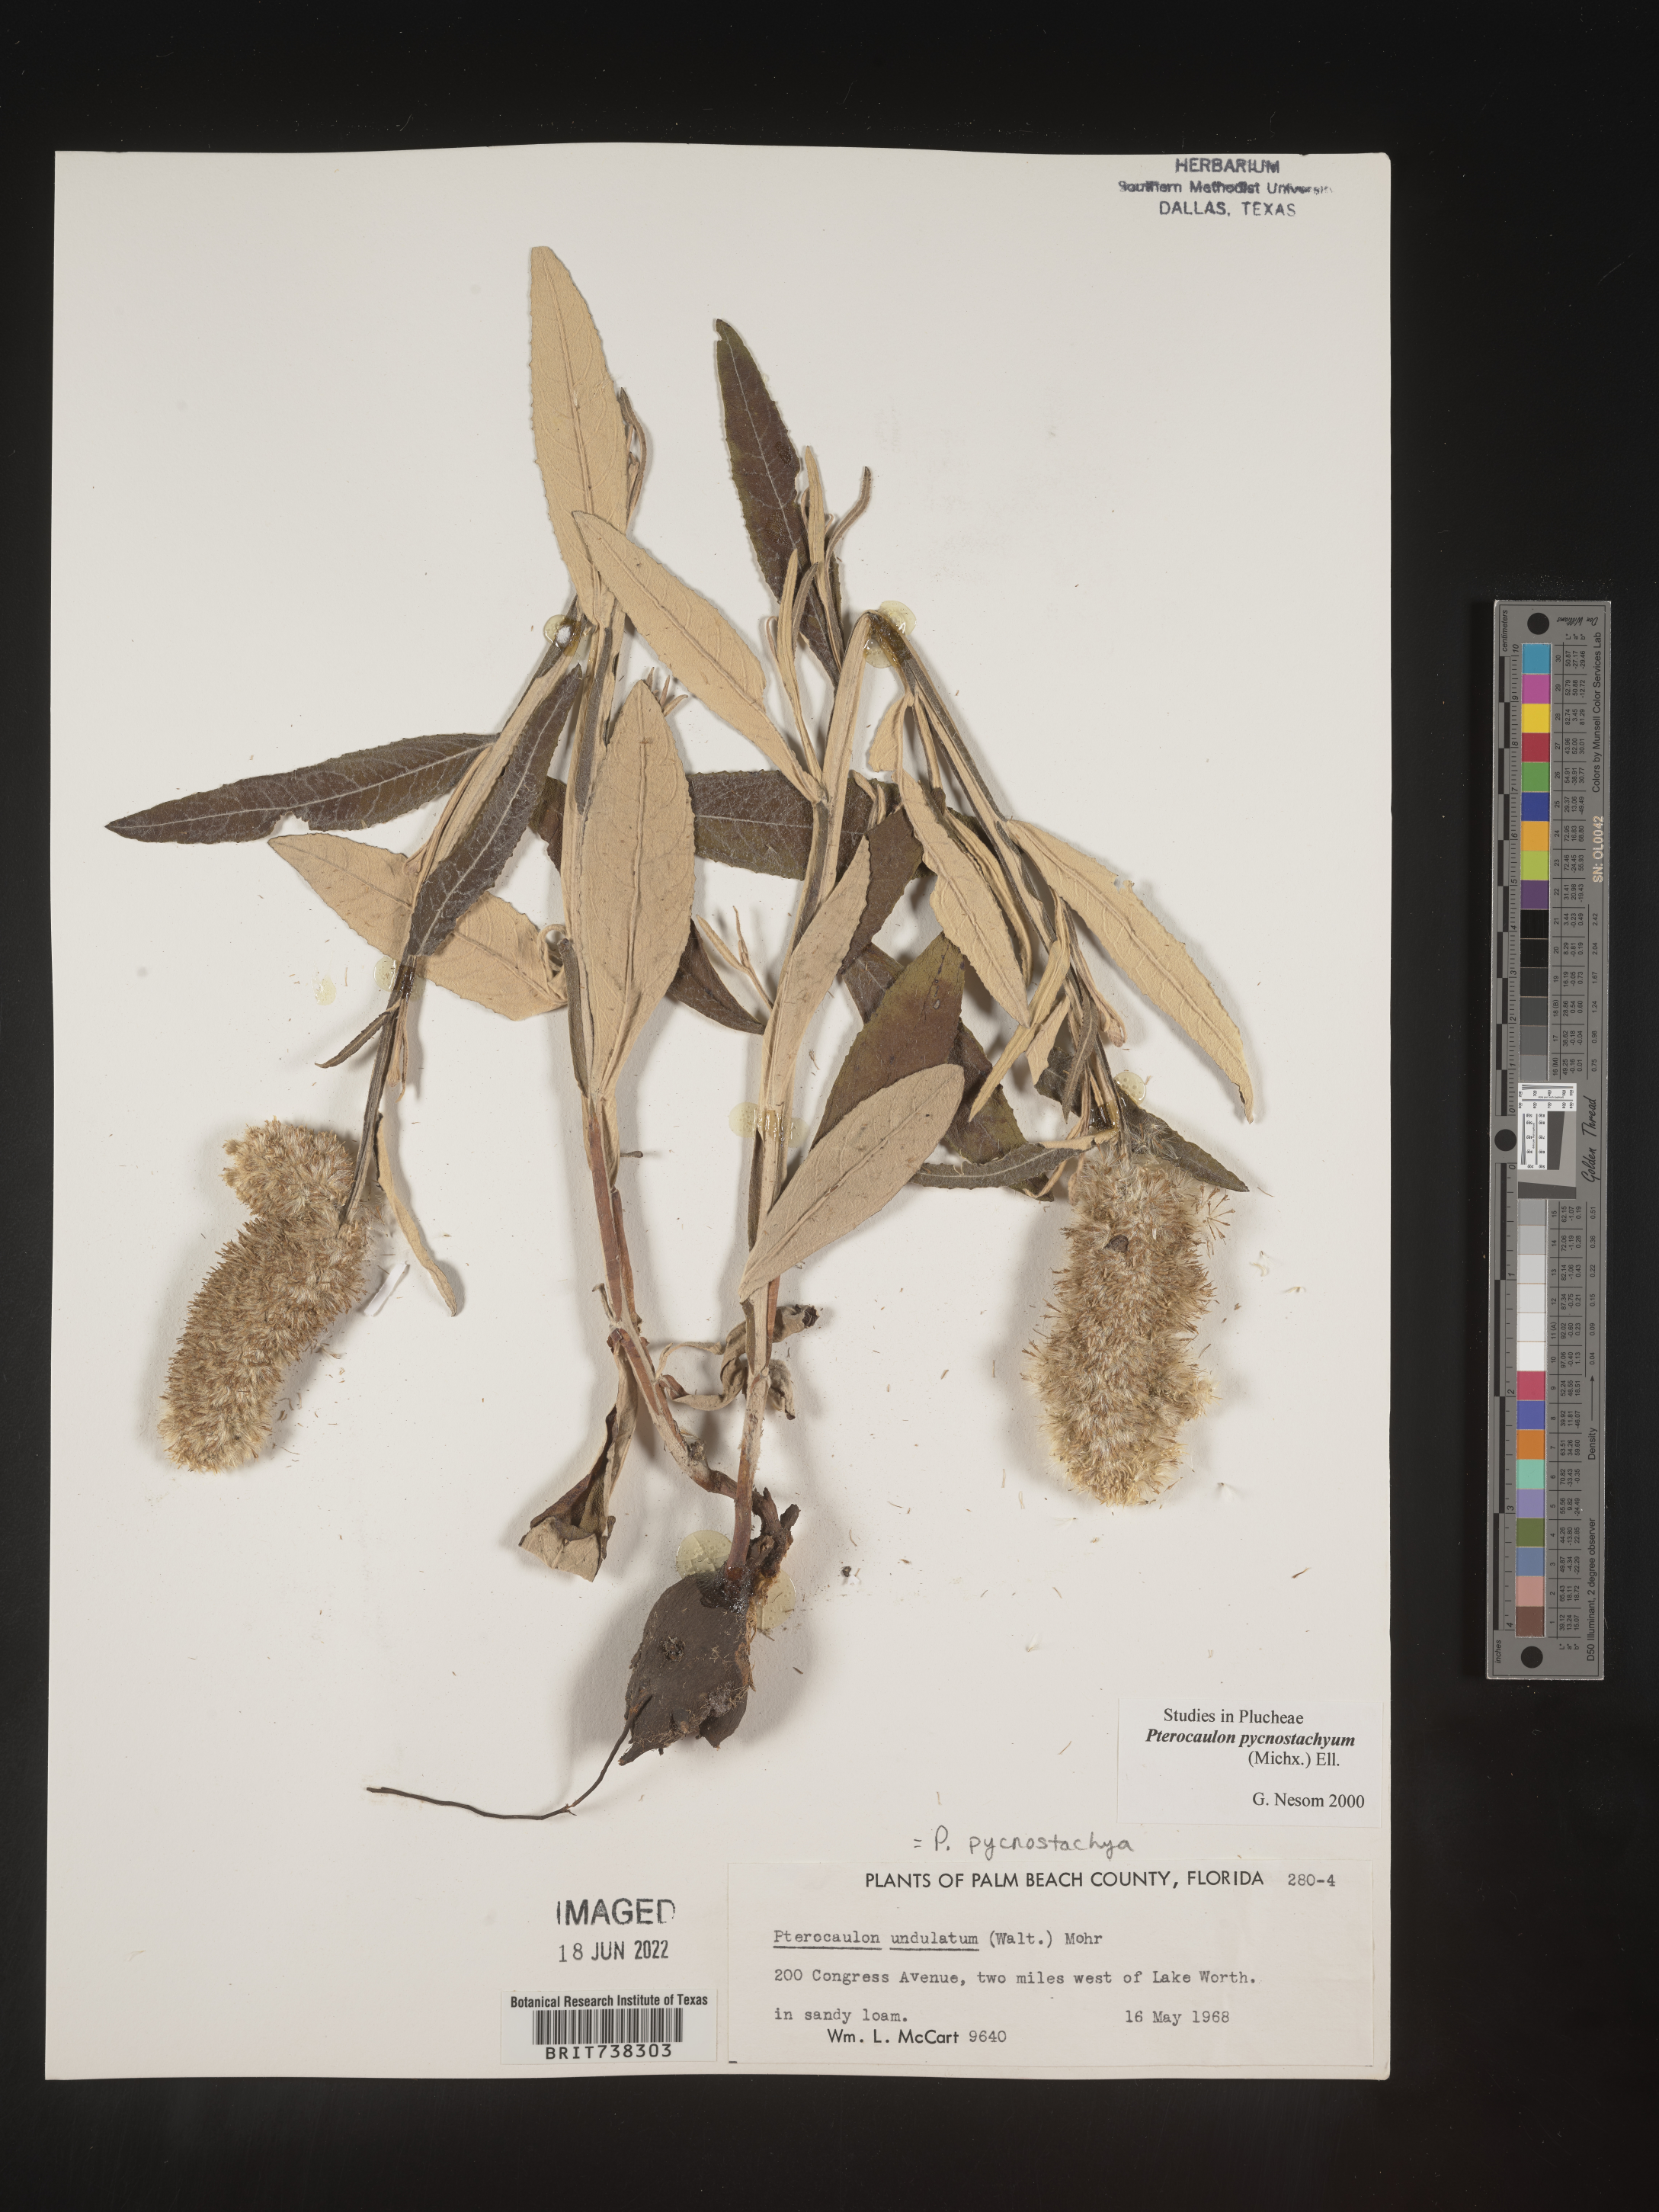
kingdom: Plantae
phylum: Tracheophyta
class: Magnoliopsida
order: Asterales
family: Asteraceae
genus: Pterocaulon
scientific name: Pterocaulon pycnostachyum
